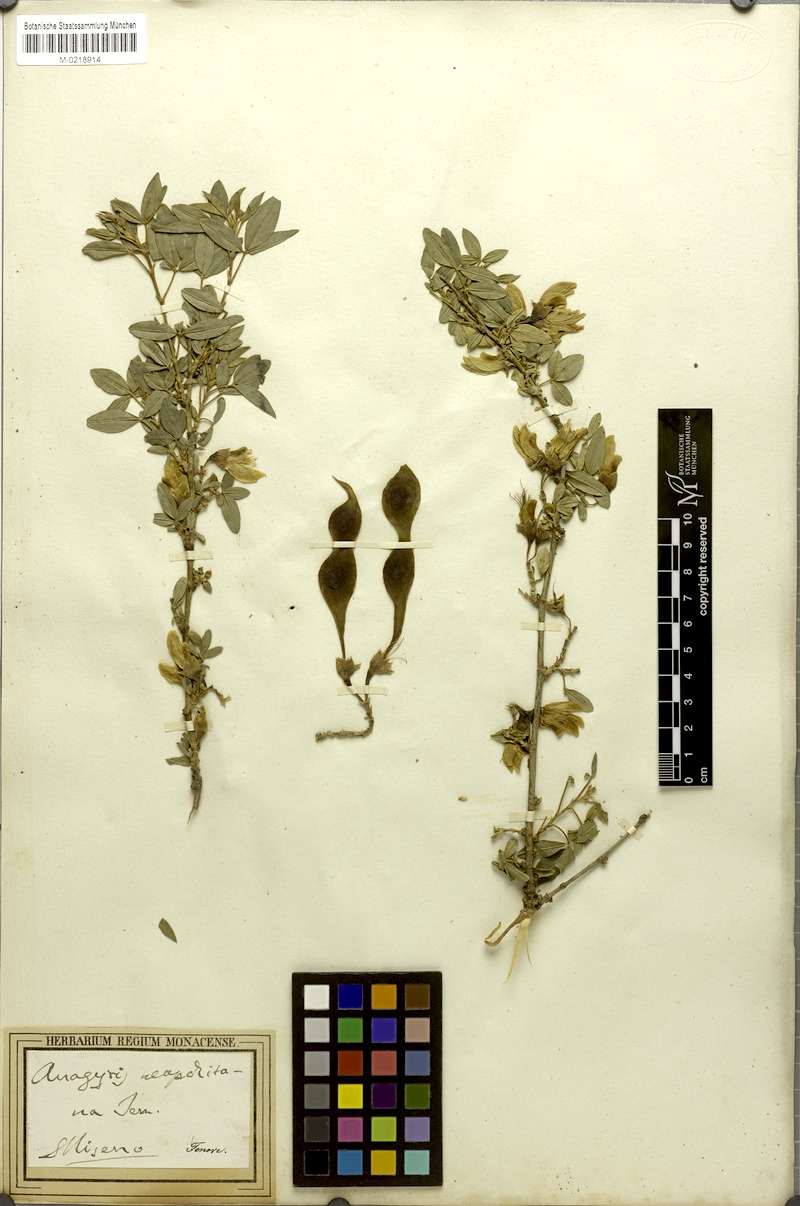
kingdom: Plantae
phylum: Tracheophyta
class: Magnoliopsida
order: Fabales
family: Fabaceae
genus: Anagyris
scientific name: Anagyris foetida
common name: Stinking bean trefoil
